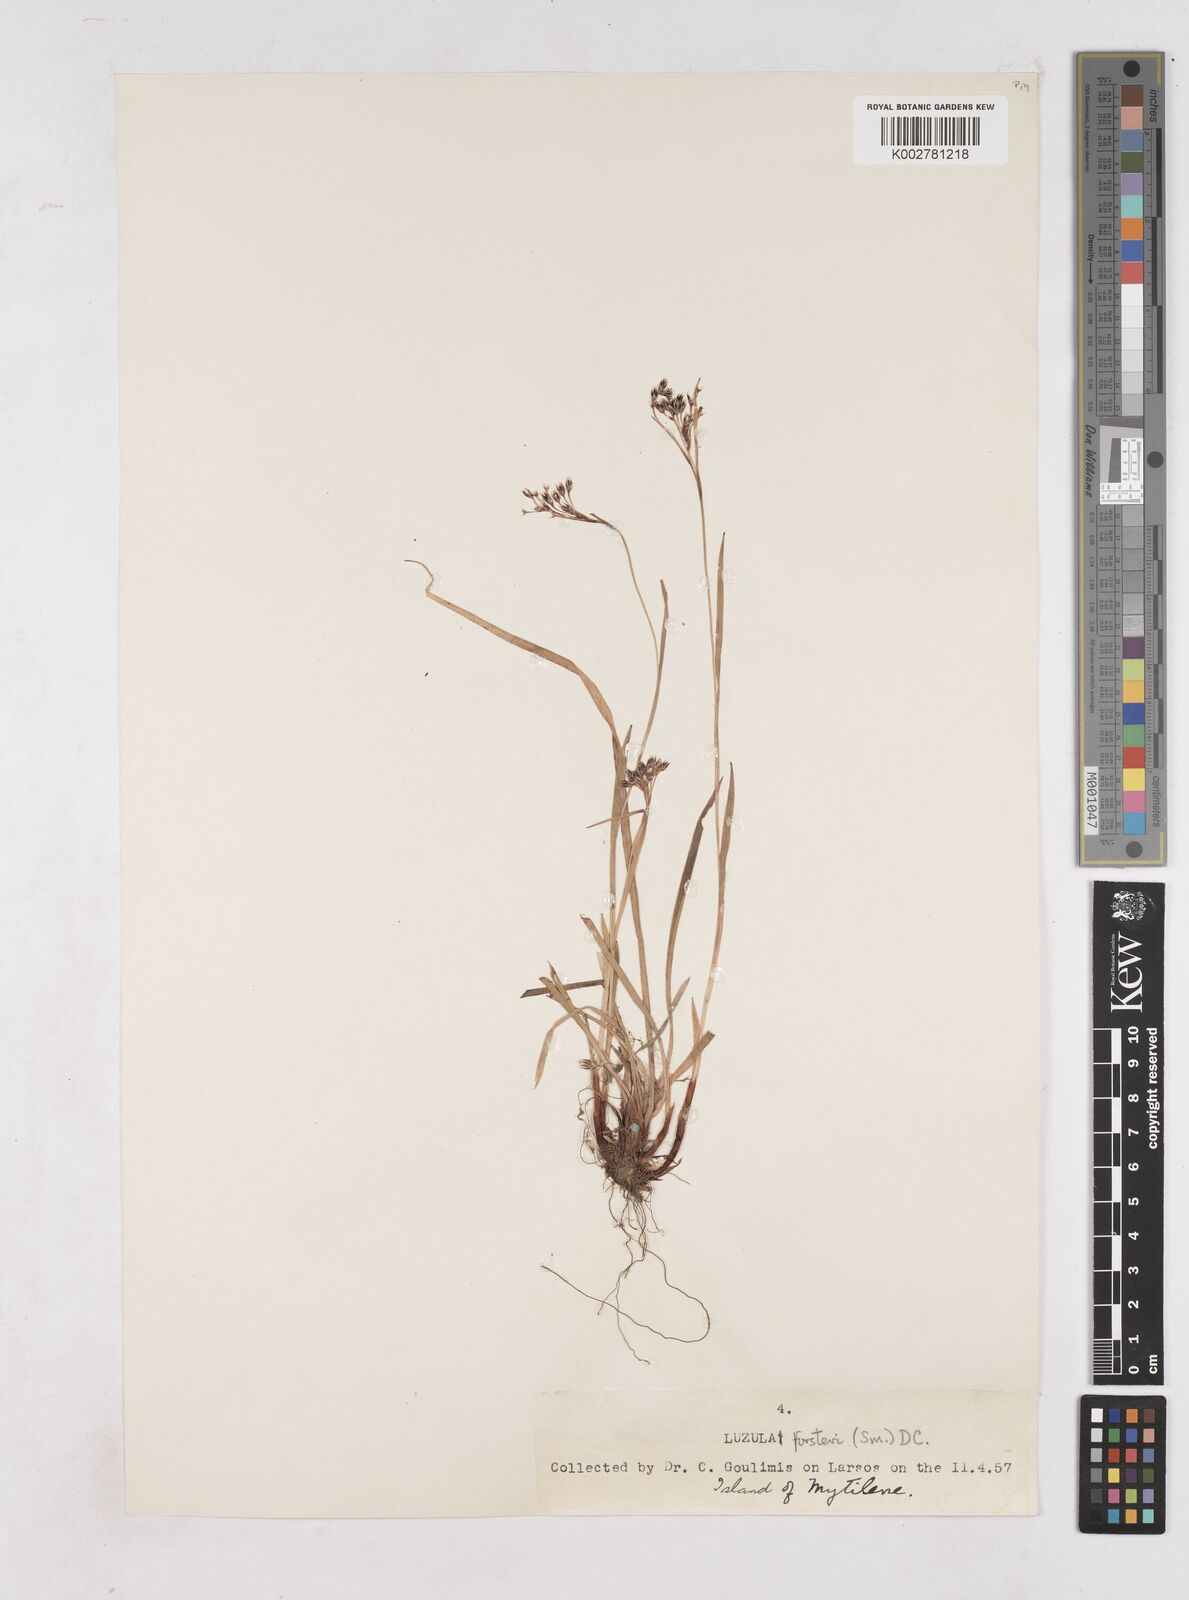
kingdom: Plantae
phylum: Tracheophyta
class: Liliopsida
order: Poales
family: Juncaceae
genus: Luzula
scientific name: Luzula forsteri
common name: Southern wood-rush
